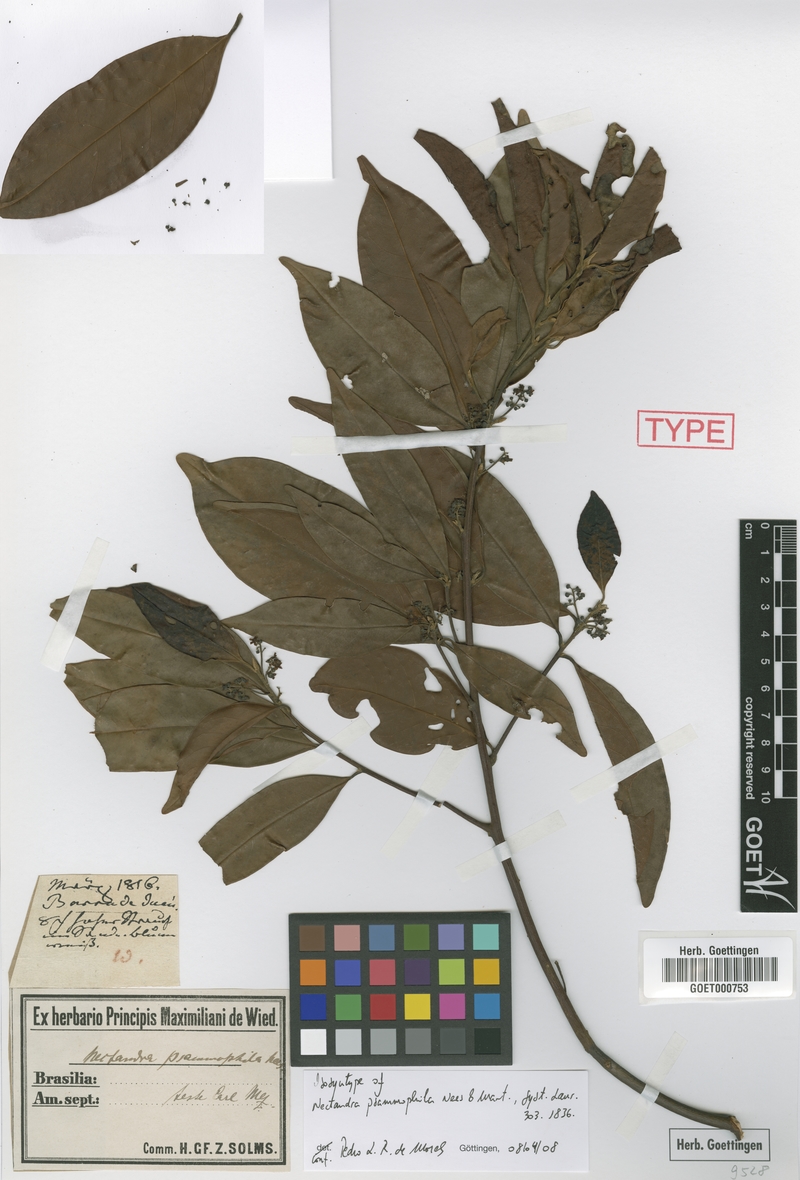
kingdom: Plantae
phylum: Tracheophyta
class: Magnoliopsida
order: Laurales
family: Lauraceae
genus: Nectandra
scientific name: Nectandra psammophila
